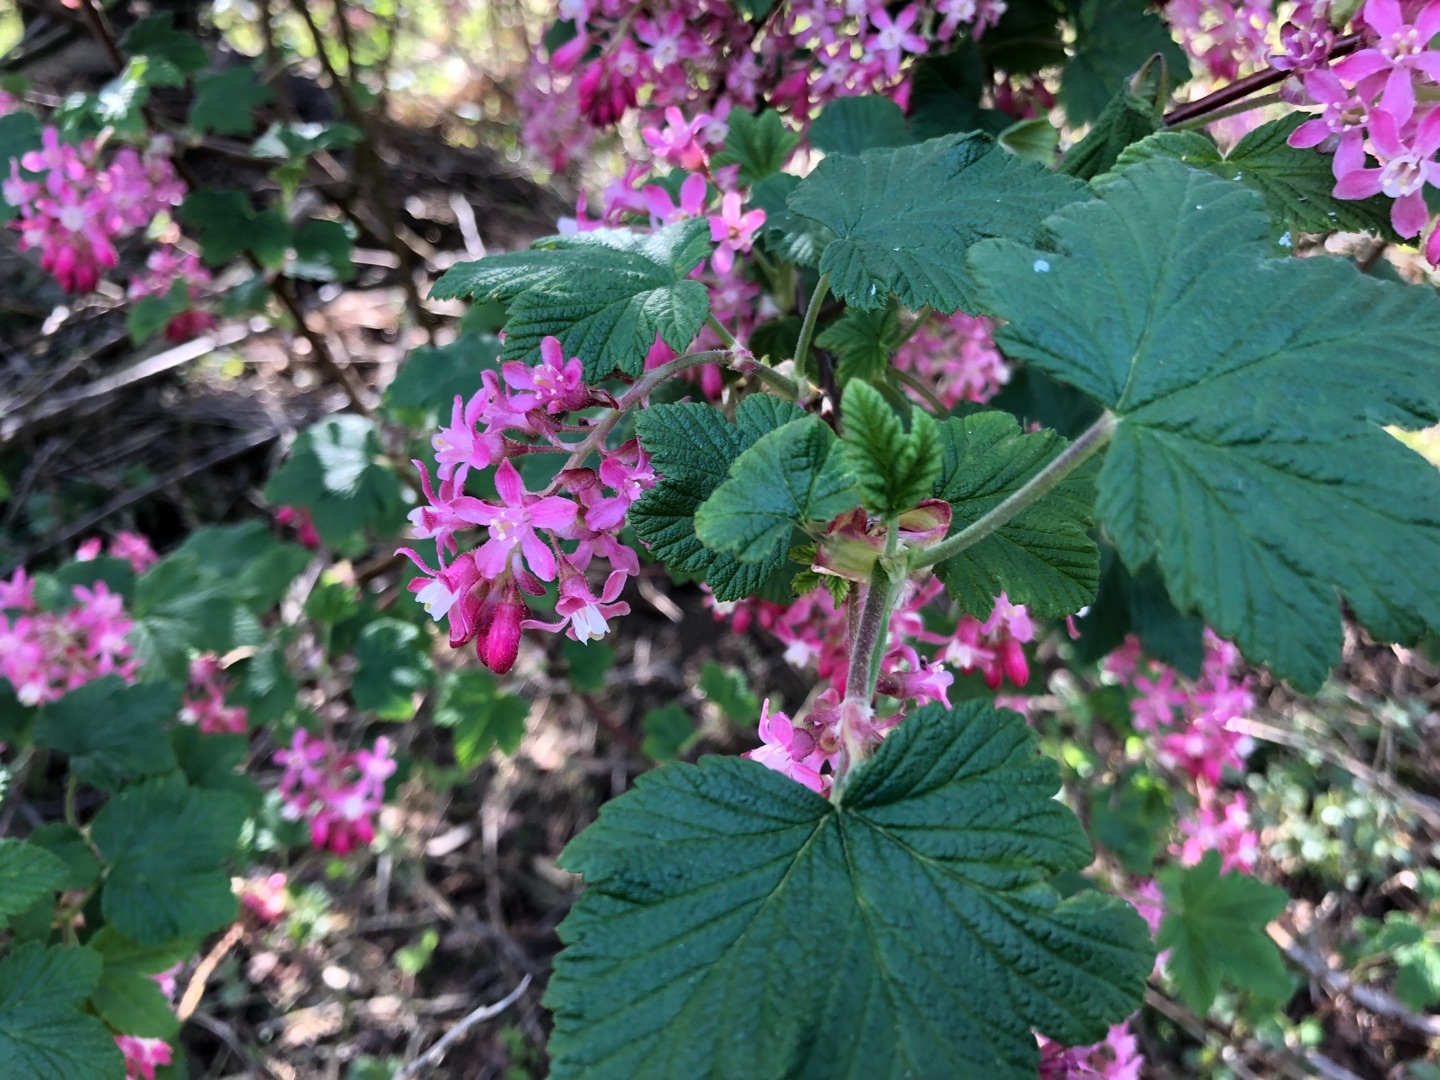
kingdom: Plantae
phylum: Tracheophyta
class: Magnoliopsida
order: Saxifragales
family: Grossulariaceae
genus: Ribes
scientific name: Ribes sanguineum
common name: Blod-ribs
